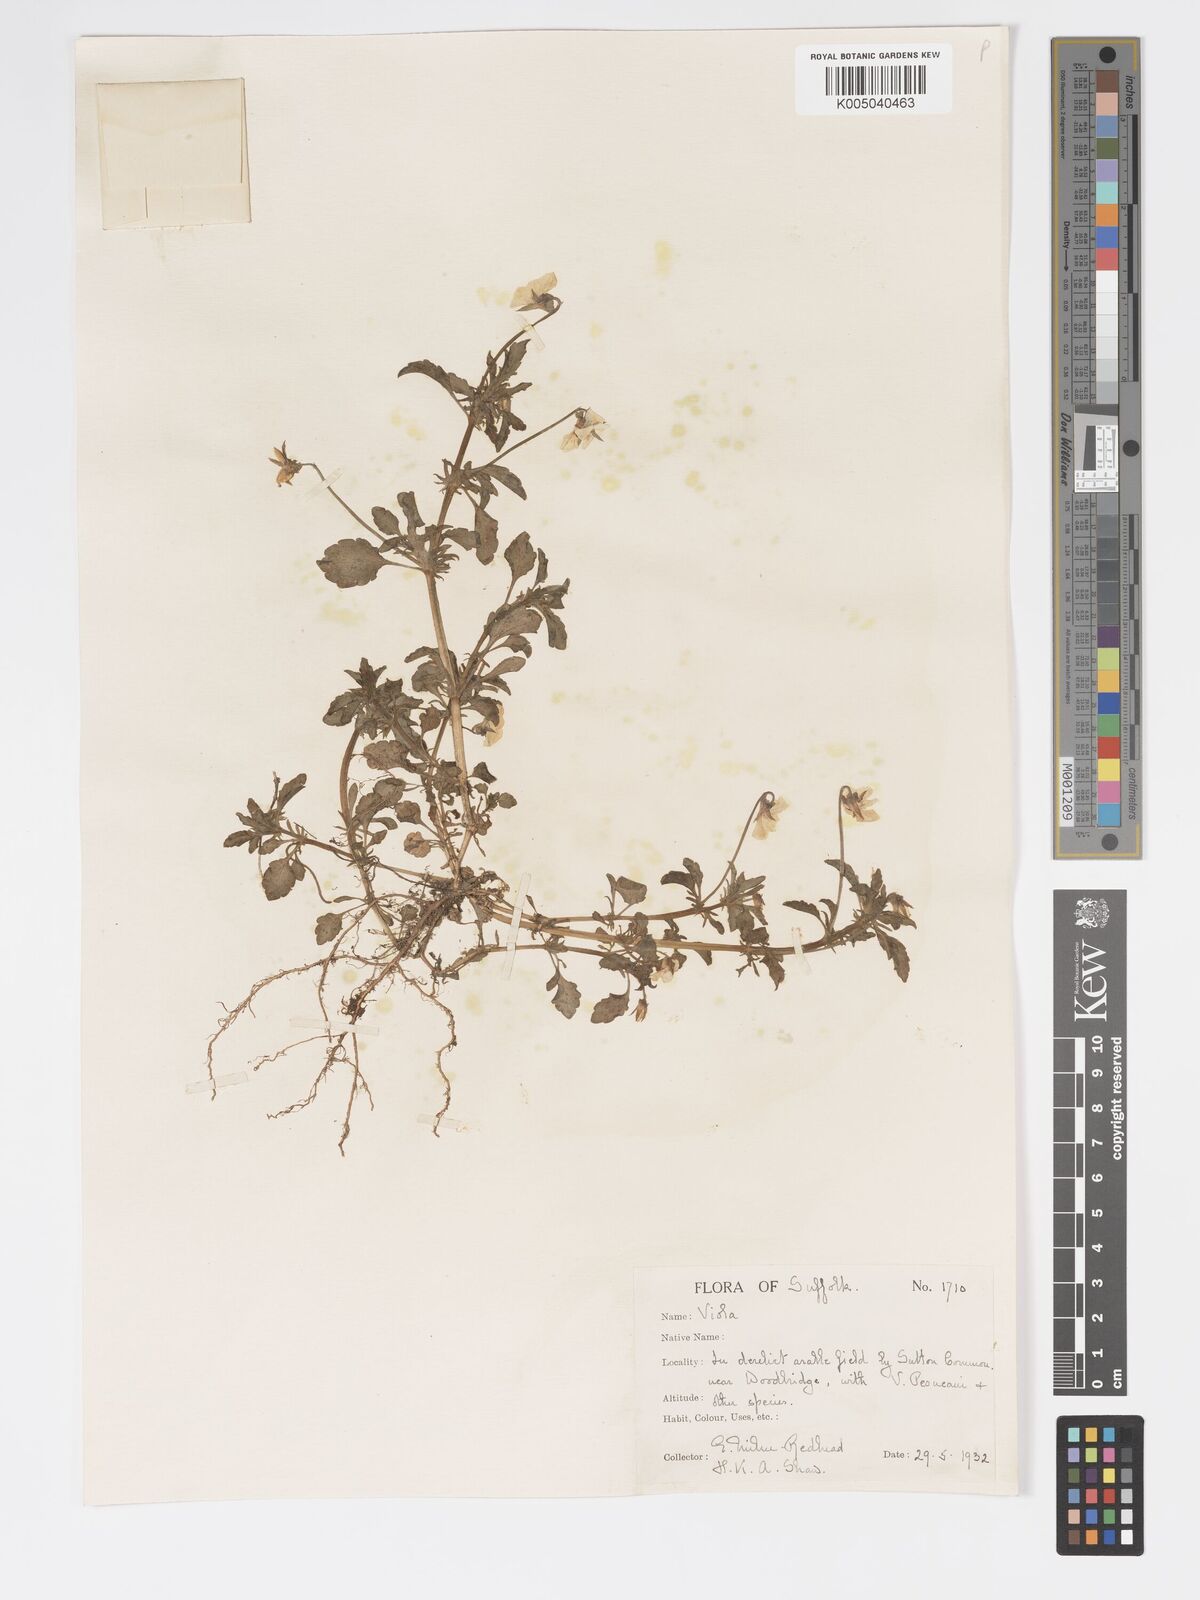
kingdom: Plantae
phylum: Tracheophyta
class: Magnoliopsida
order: Malpighiales
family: Violaceae
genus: Viola
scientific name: Viola arvensis
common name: Field pansy
